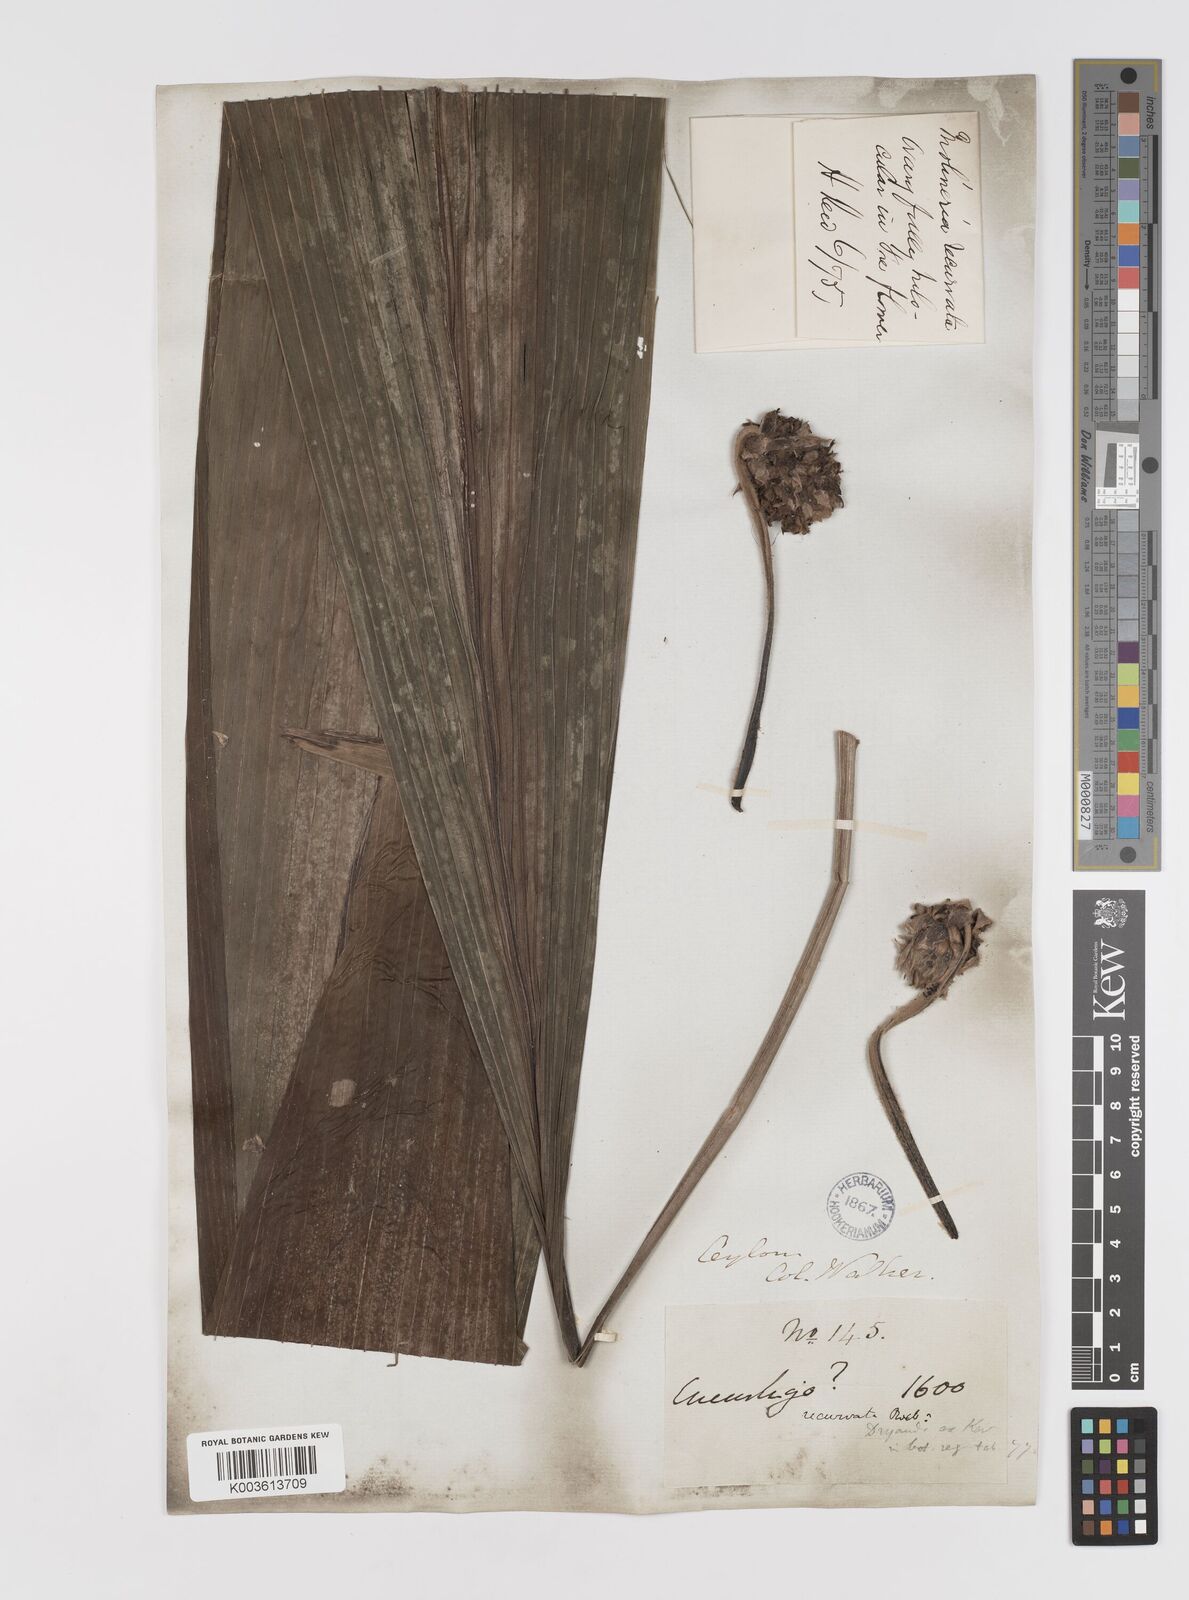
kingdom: Plantae
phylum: Tracheophyta
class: Liliopsida
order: Asparagales
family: Hypoxidaceae
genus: Curculigo
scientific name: Curculigo capitulata
